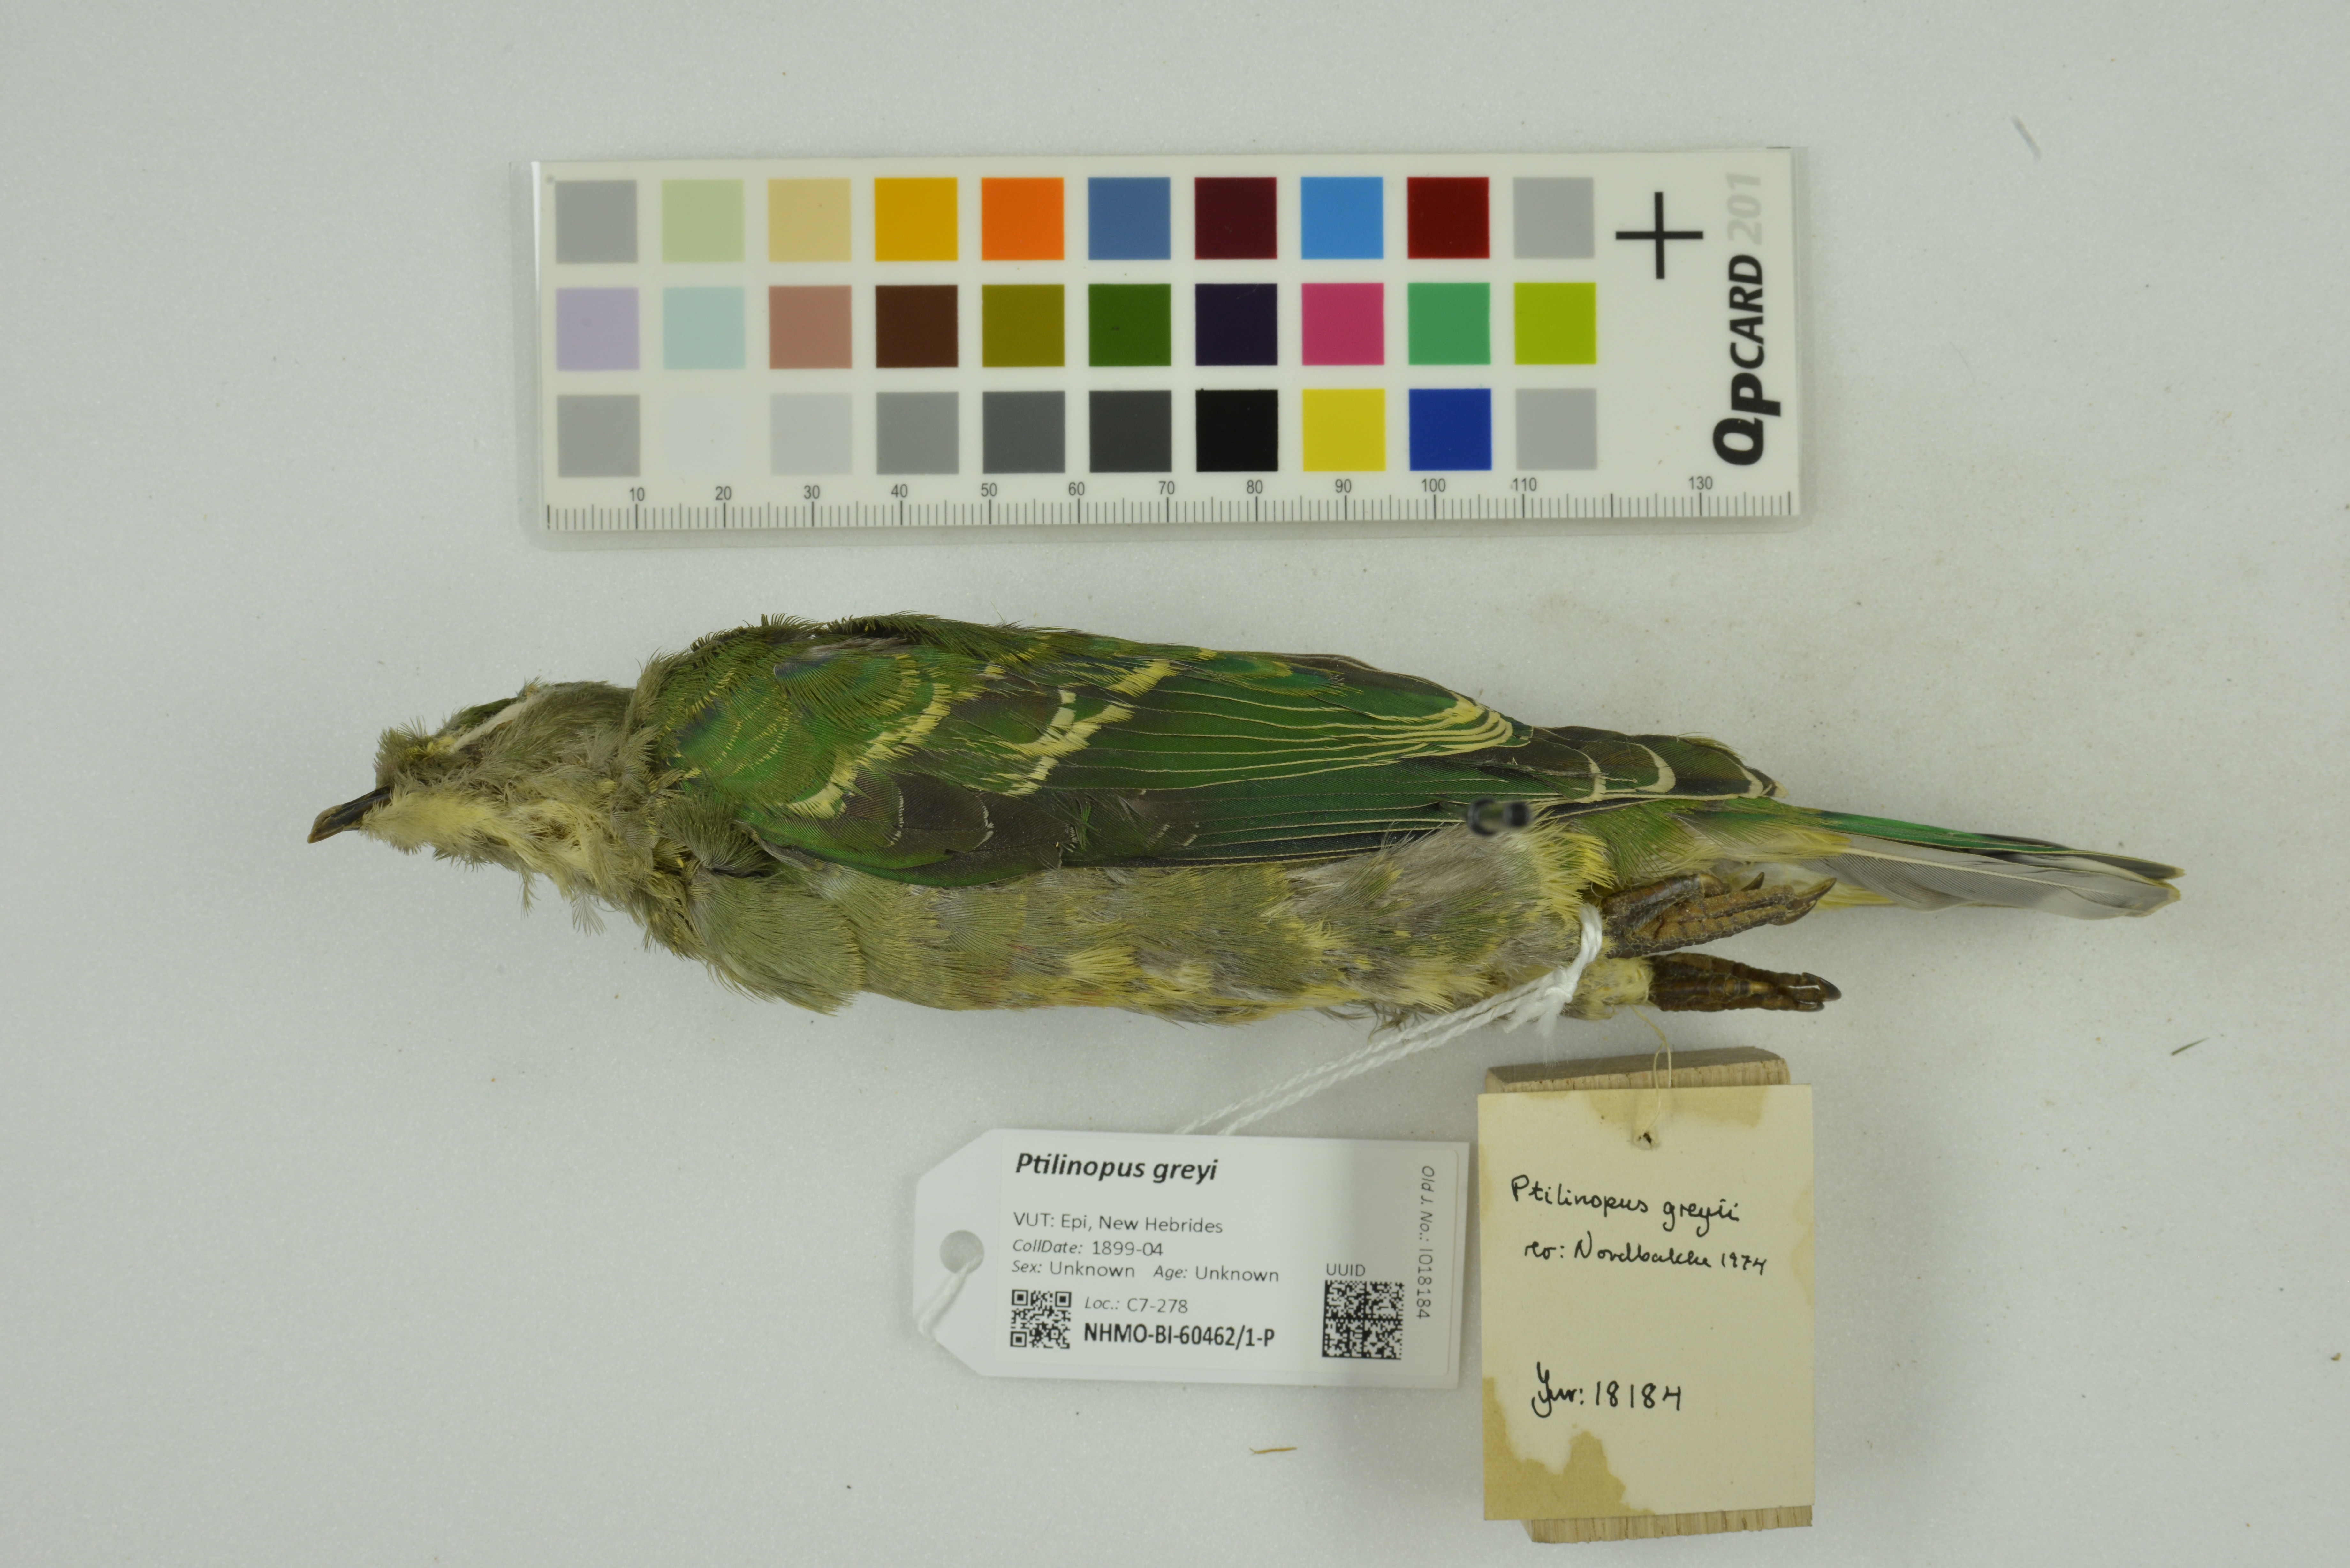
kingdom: Animalia
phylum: Chordata
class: Aves
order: Columbiformes
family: Columbidae
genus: Ptilinopus
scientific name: Ptilinopus greyi
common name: Red-bellied fruit-dove
